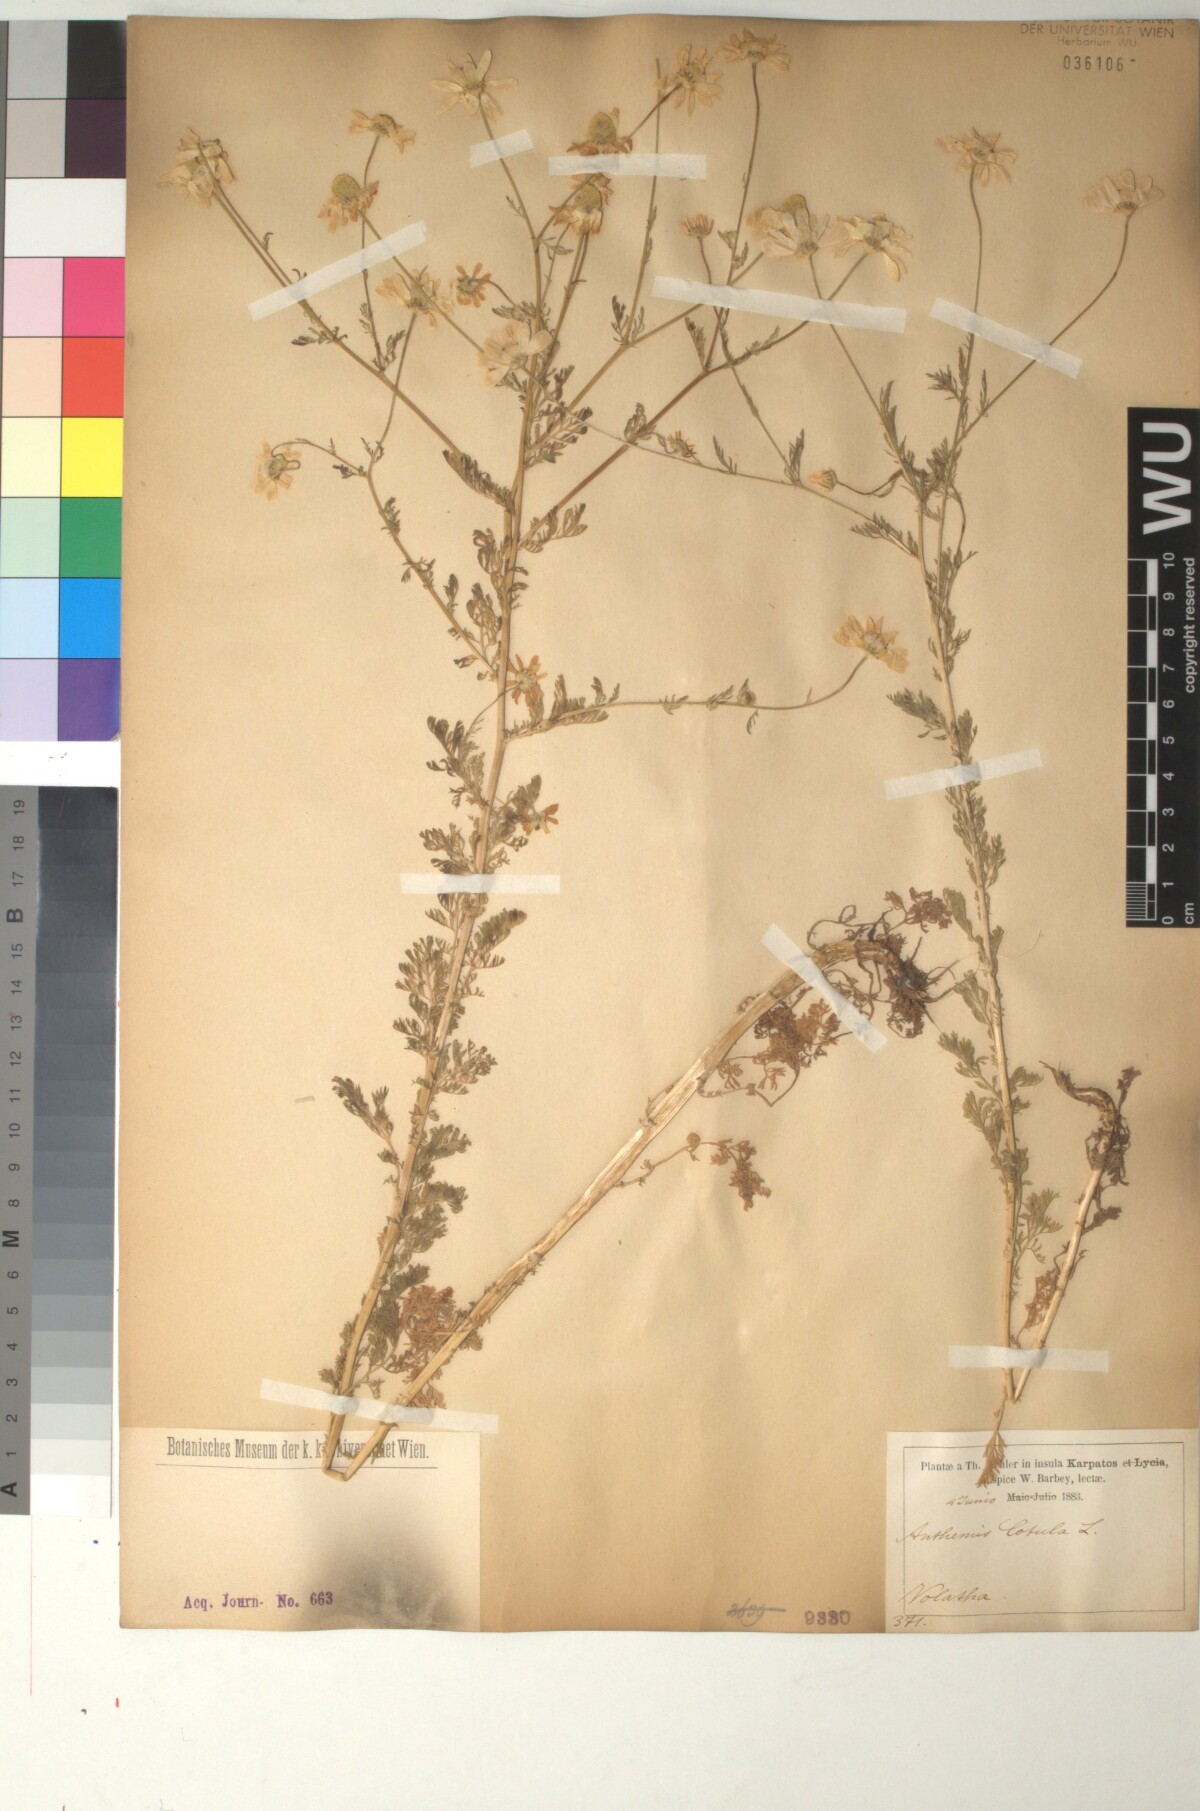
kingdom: Plantae
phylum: Tracheophyta
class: Magnoliopsida
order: Asterales
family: Asteraceae
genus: Anthemis
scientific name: Anthemis cotula
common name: Stinking chamomile
